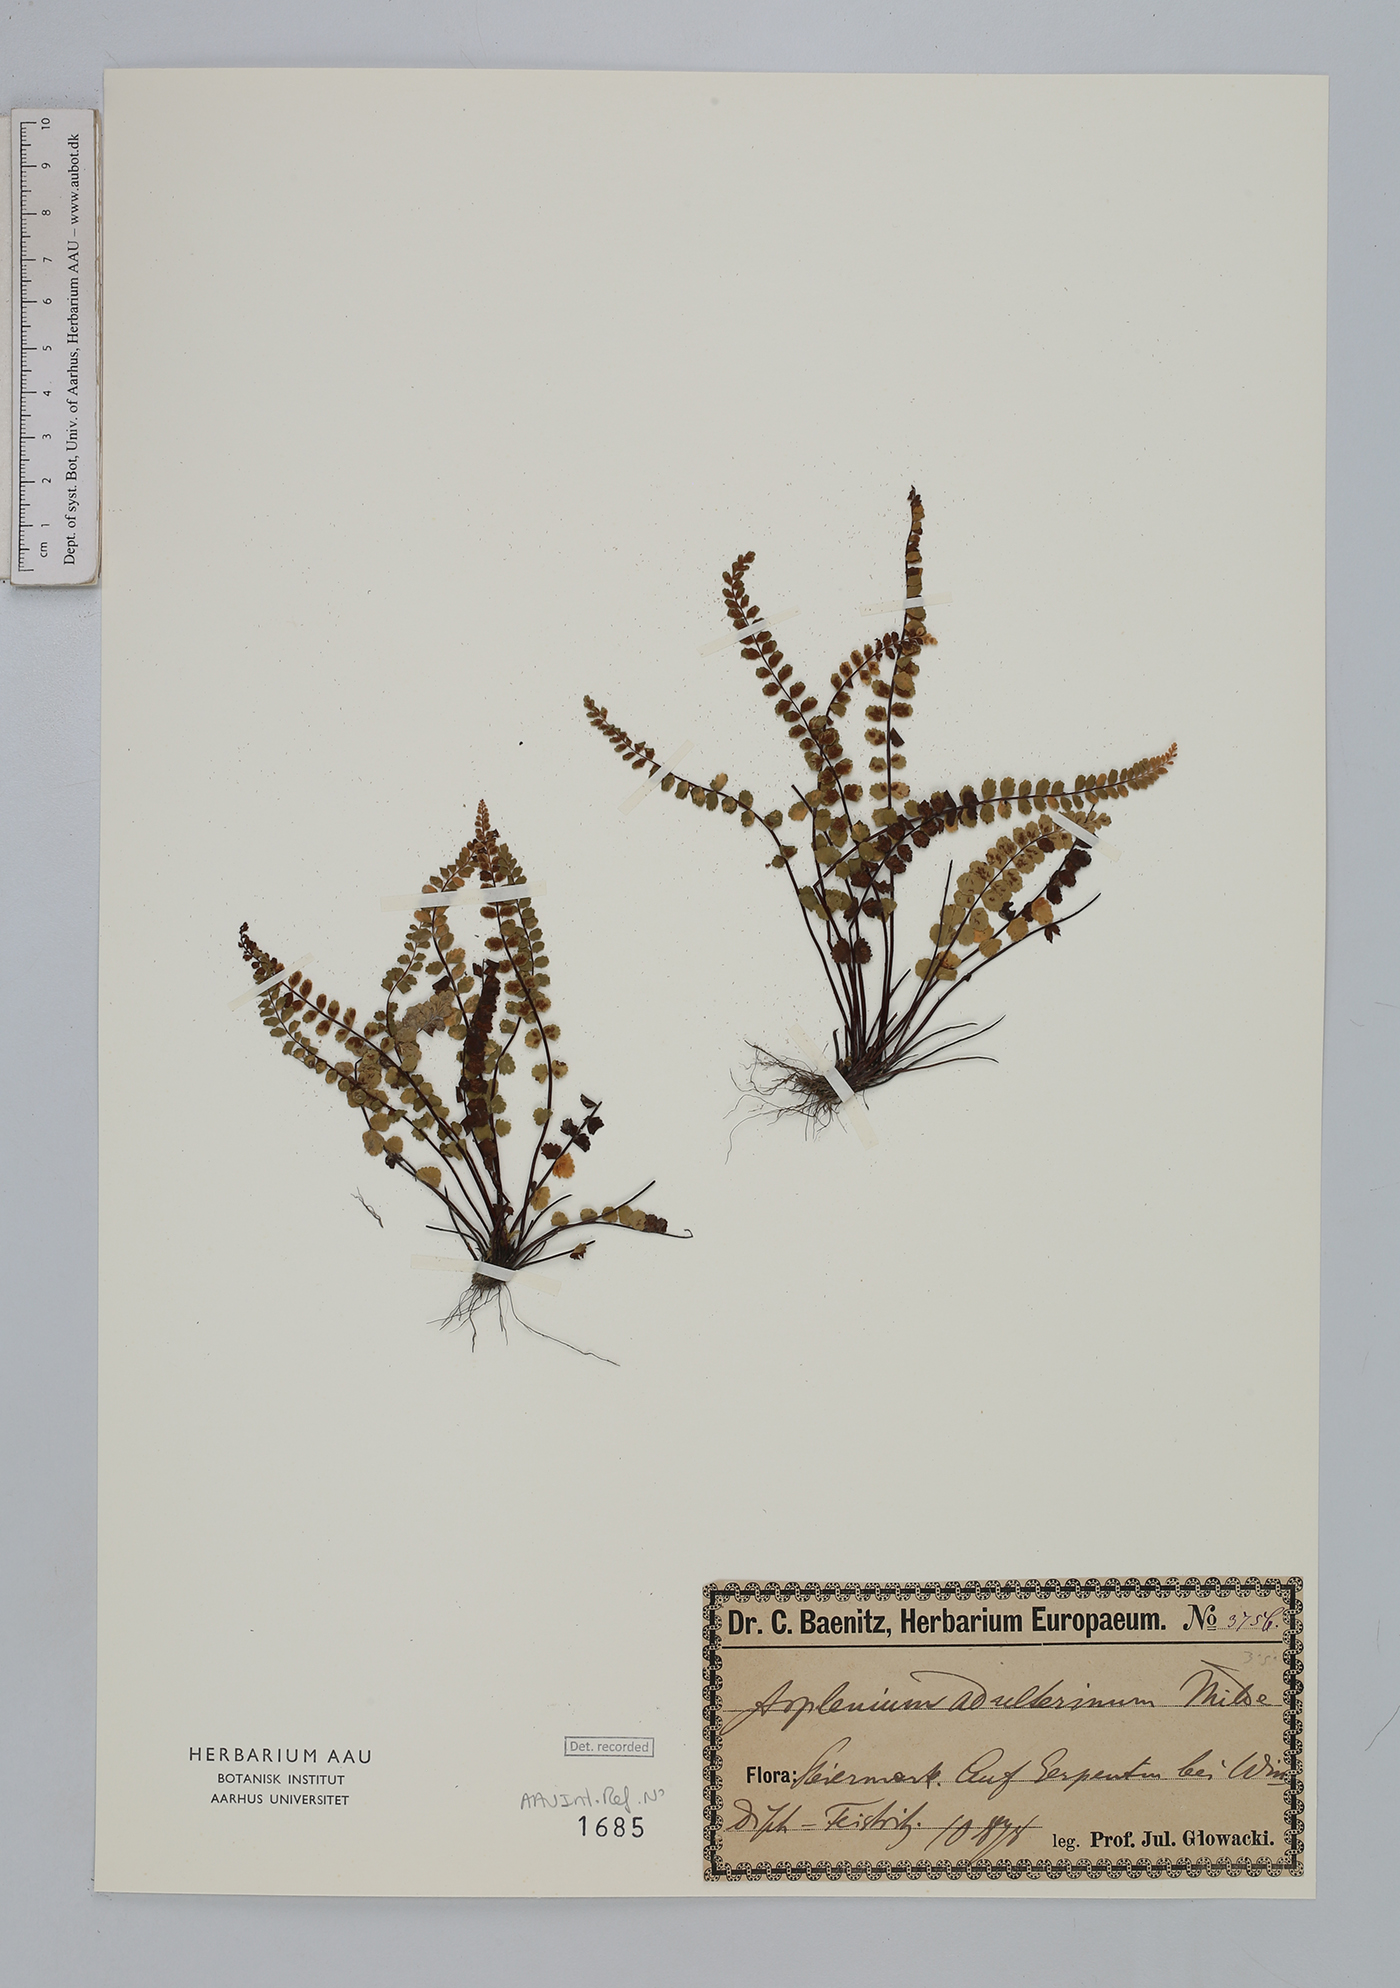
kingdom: Plantae
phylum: Tracheophyta
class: Polypodiopsida
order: Polypodiales
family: Aspleniaceae
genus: Asplenium
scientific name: Asplenium adulterinum
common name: Adulterated spleenwort
